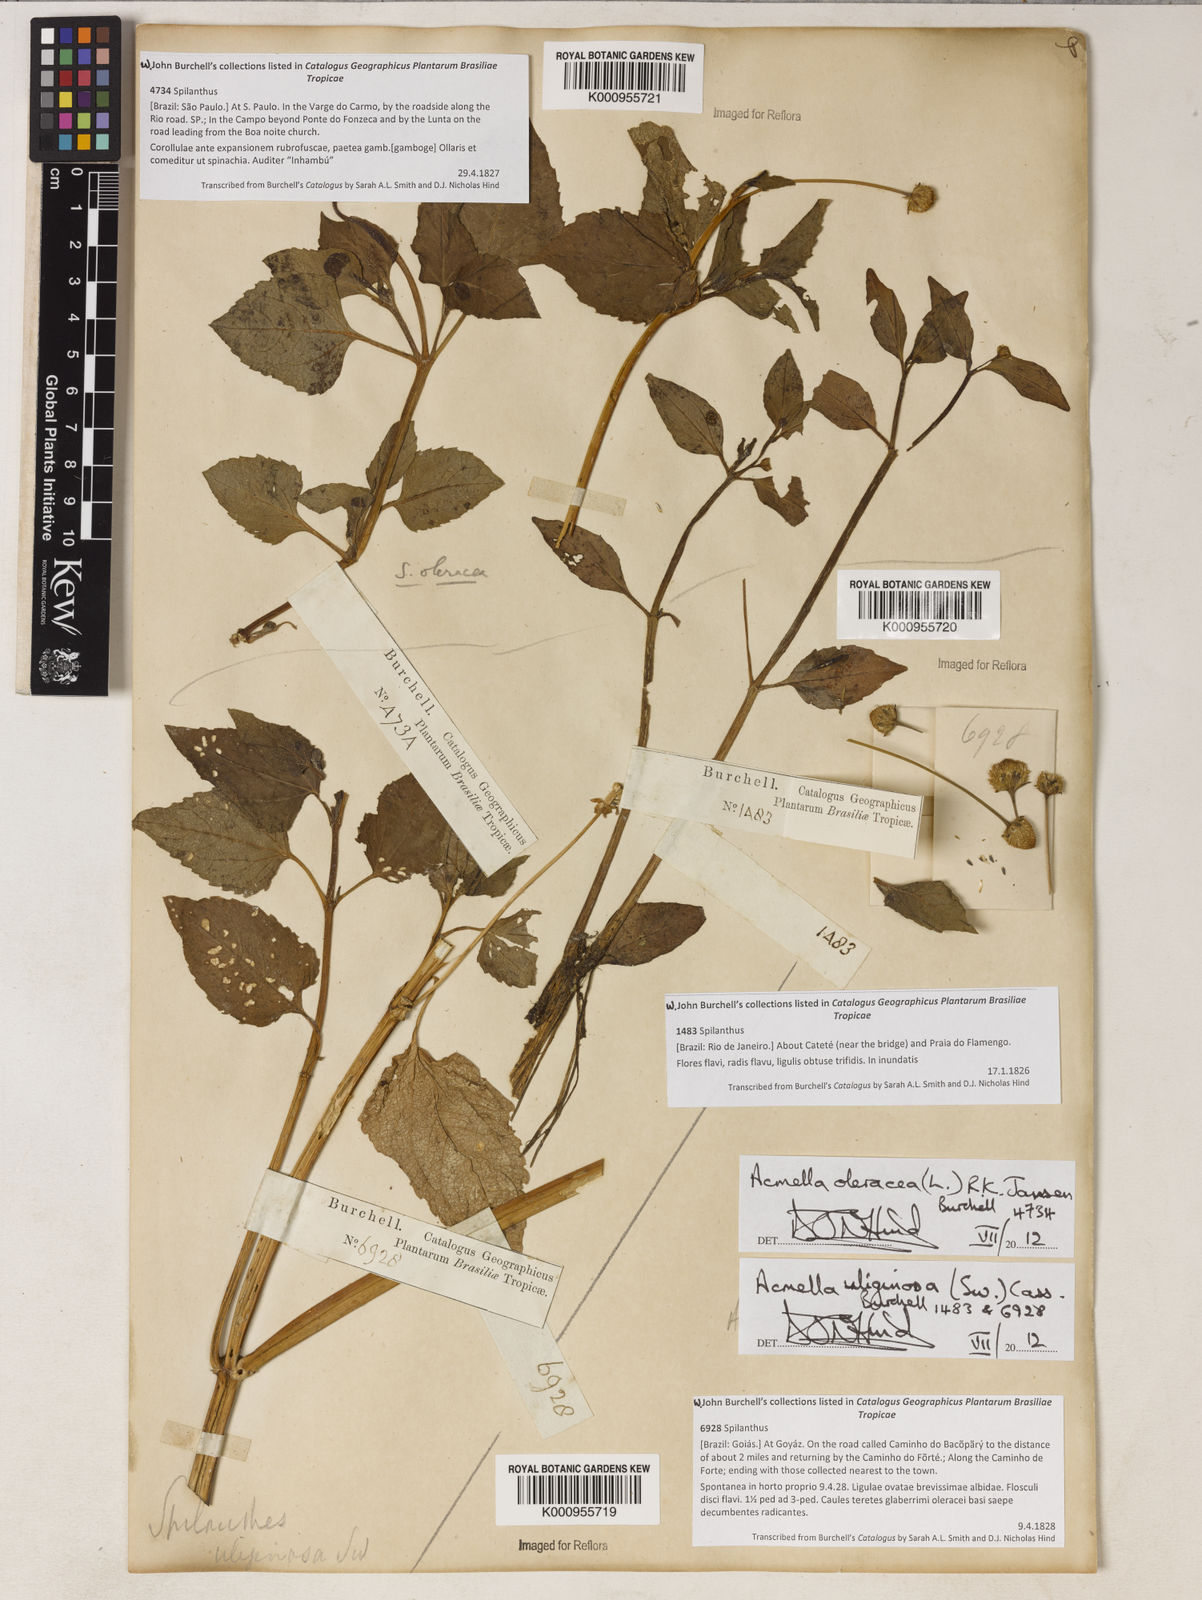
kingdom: Plantae
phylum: Tracheophyta
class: Magnoliopsida
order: Asterales
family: Asteraceae
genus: Acmella
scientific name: Acmella oleracea
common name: Brazilian cress
